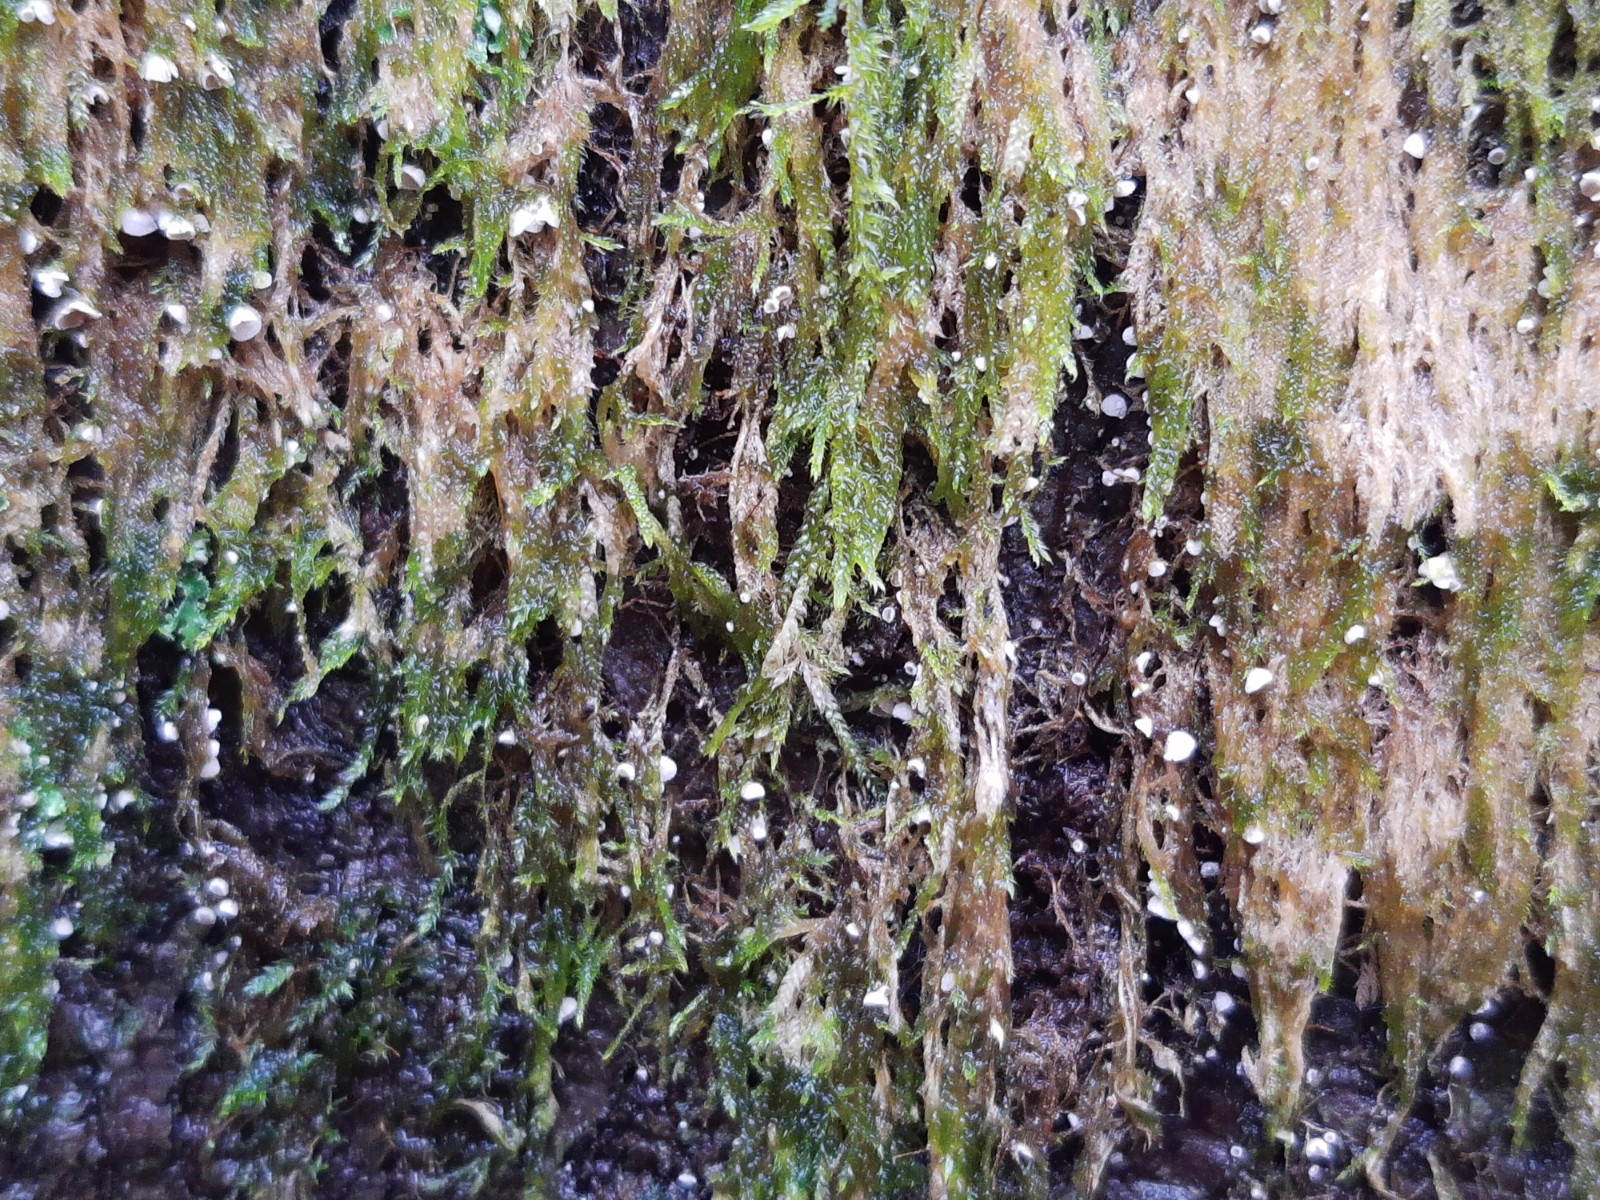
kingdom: Fungi
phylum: Basidiomycota
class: Agaricomycetes
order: Agaricales
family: Chromocyphellaceae
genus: Chromocyphella
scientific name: Chromocyphella muscicola
